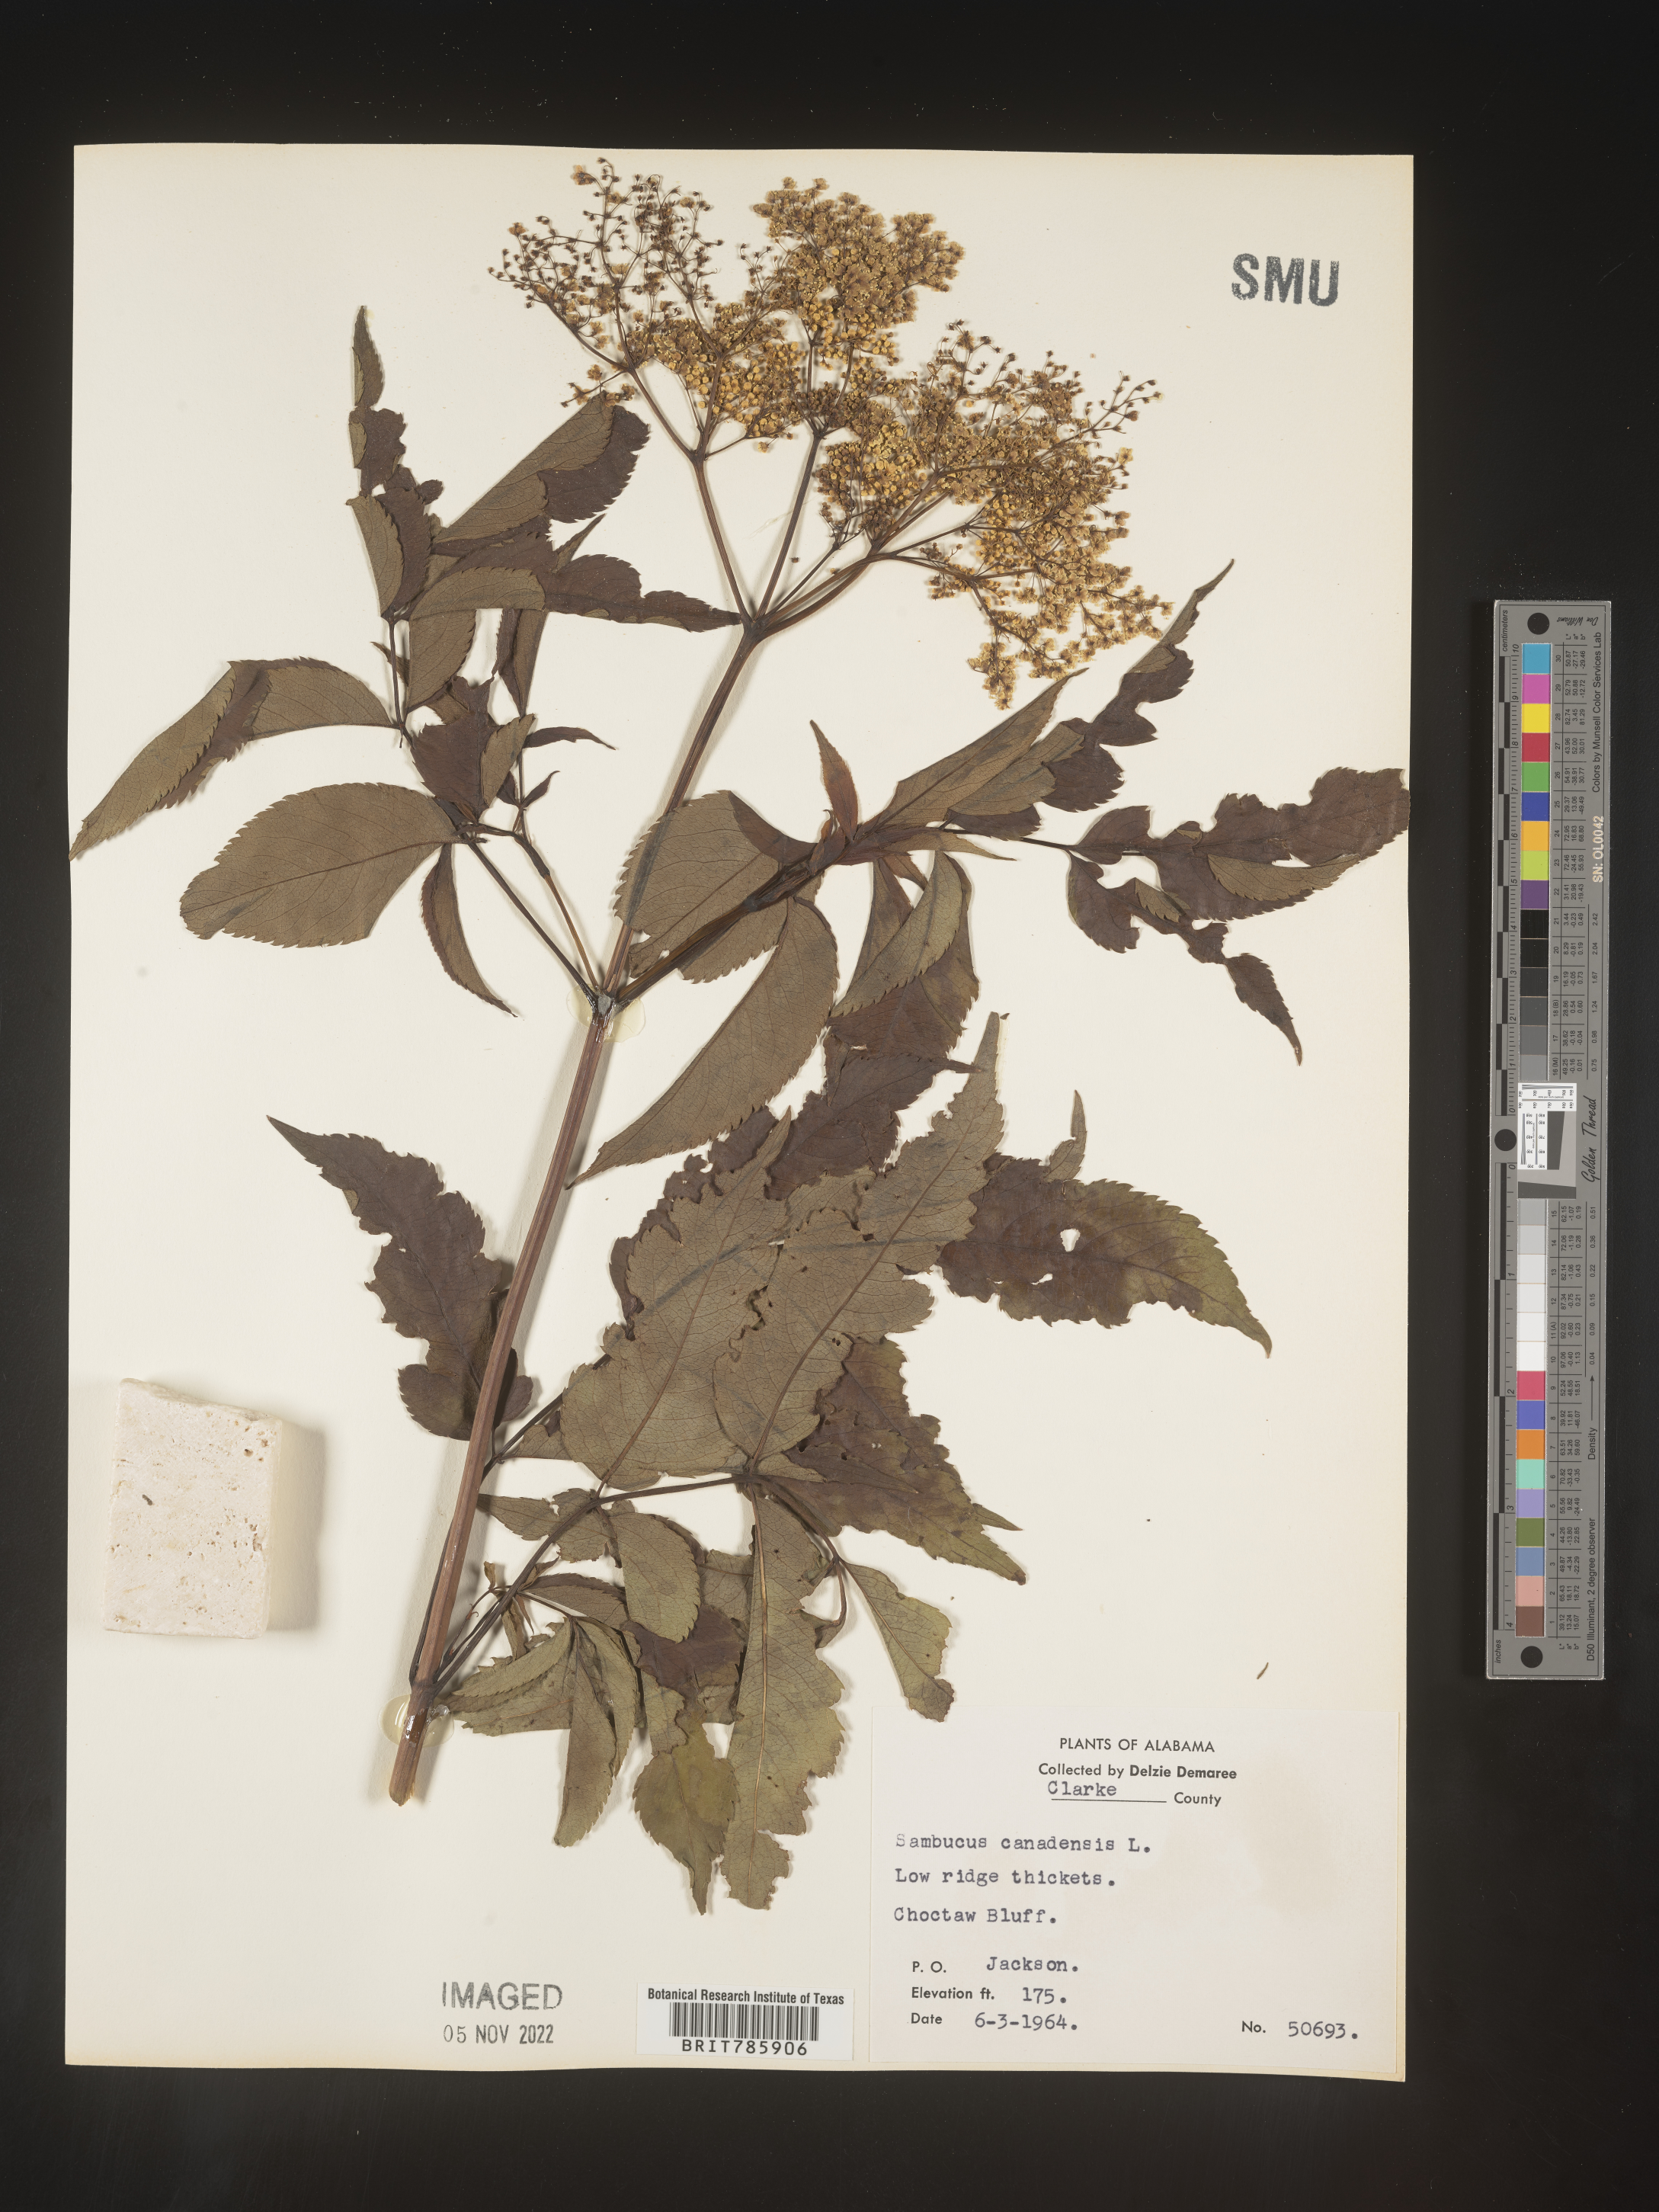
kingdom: Plantae
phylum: Tracheophyta
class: Magnoliopsida
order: Dipsacales
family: Viburnaceae
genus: Sambucus
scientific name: Sambucus nigra
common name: Elder
